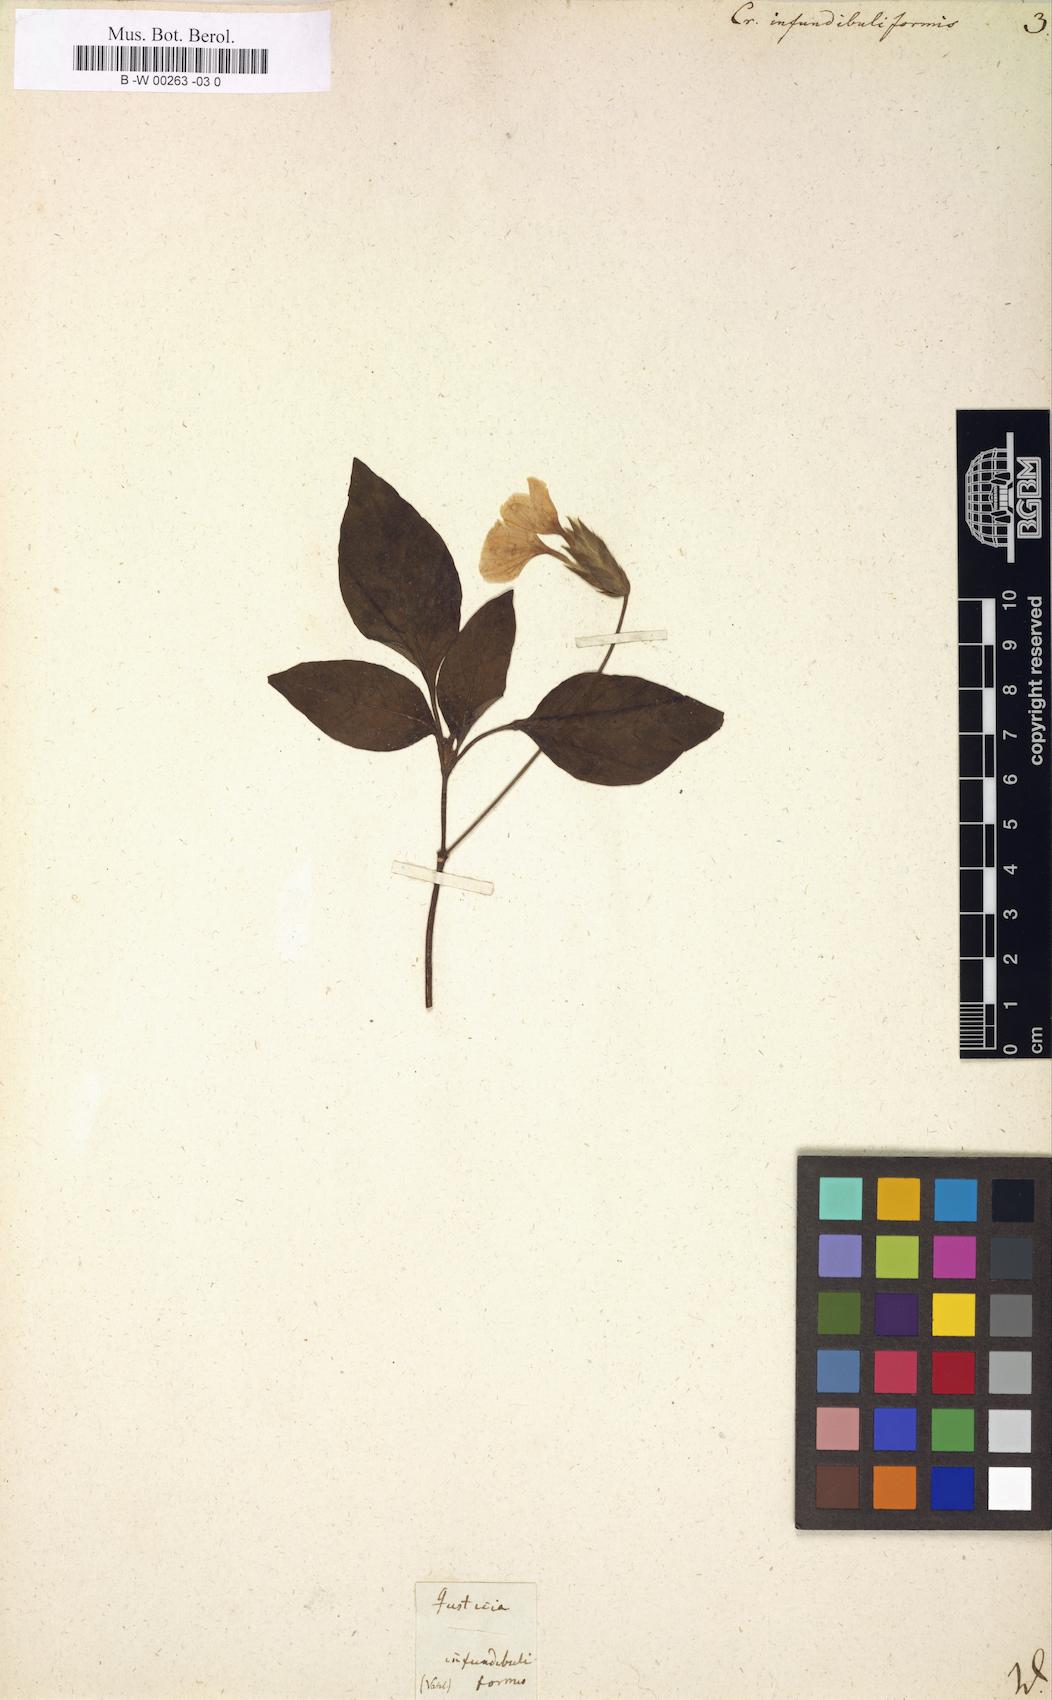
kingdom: Plantae
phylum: Tracheophyta
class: Magnoliopsida
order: Lamiales
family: Acanthaceae
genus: Crossandra
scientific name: Crossandra infundibuliformis
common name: Firecracker-flower
